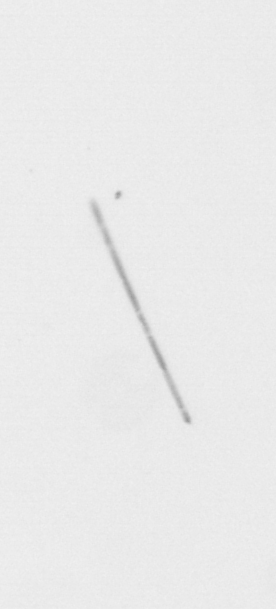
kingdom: Chromista
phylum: Ochrophyta
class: Bacillariophyceae
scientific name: Bacillariophyceae
